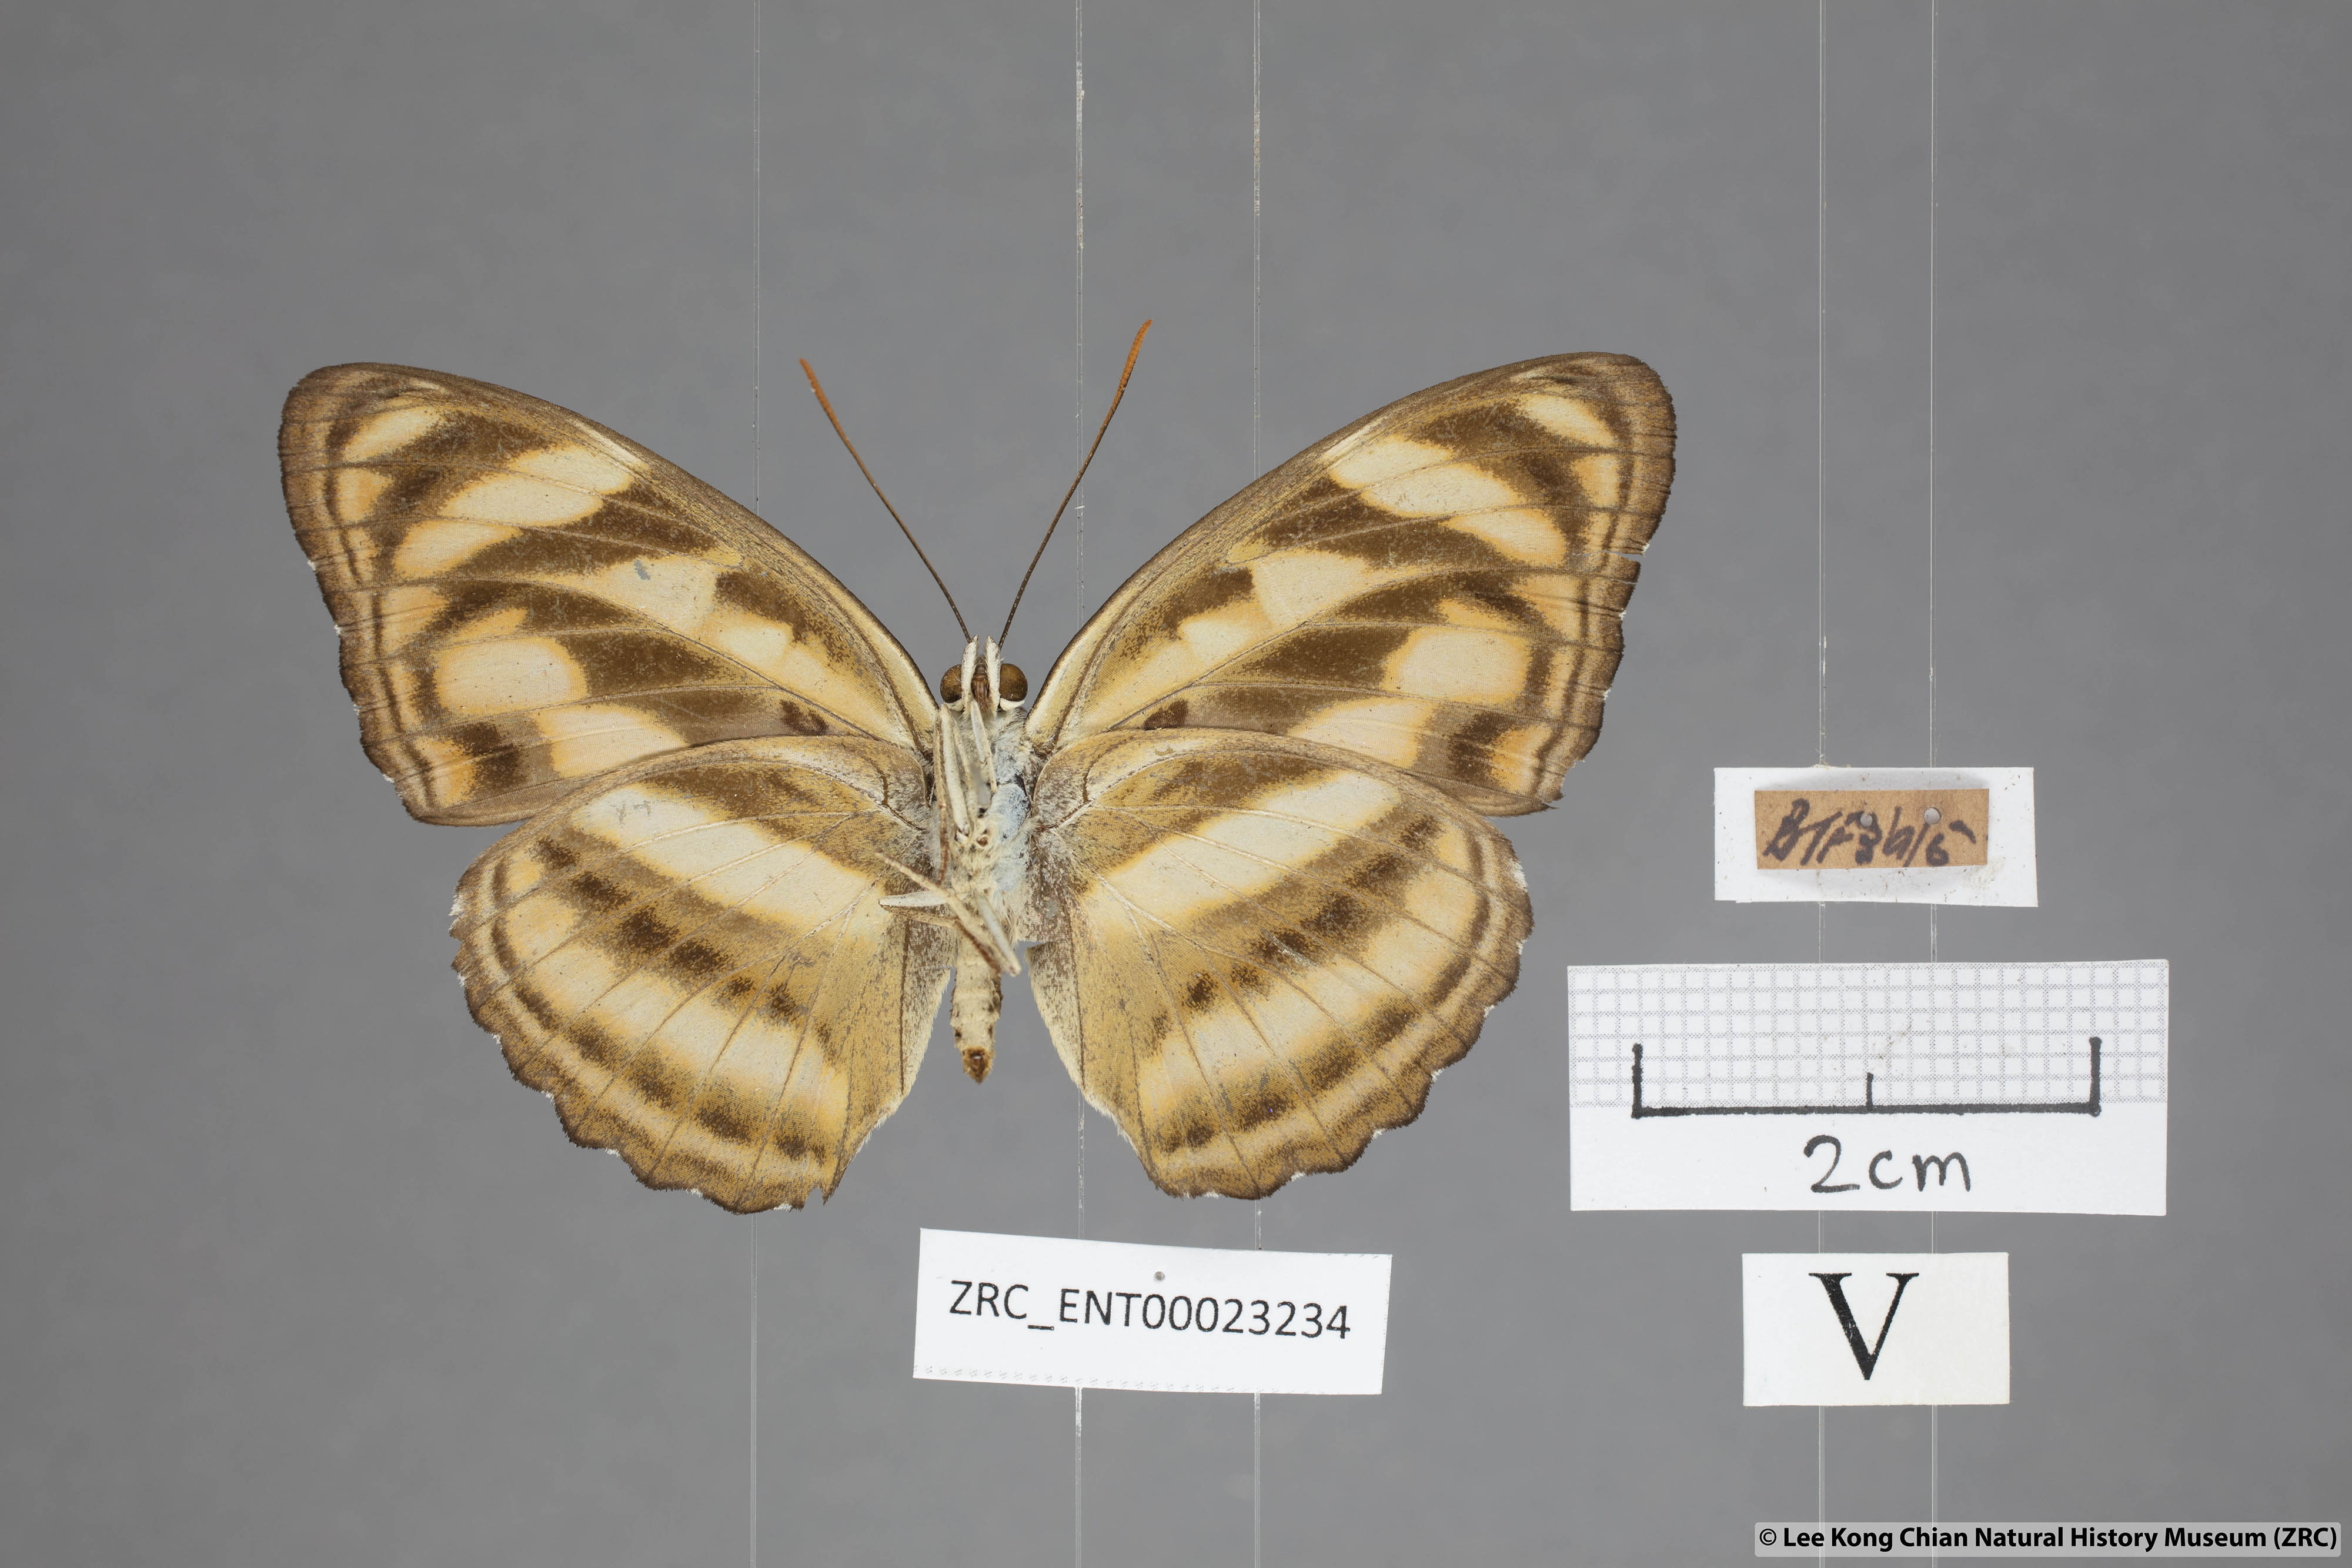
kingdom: Animalia
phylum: Arthropoda
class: Insecta
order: Lepidoptera
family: Nymphalidae
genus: Parathyma
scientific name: Parathyma nefte
